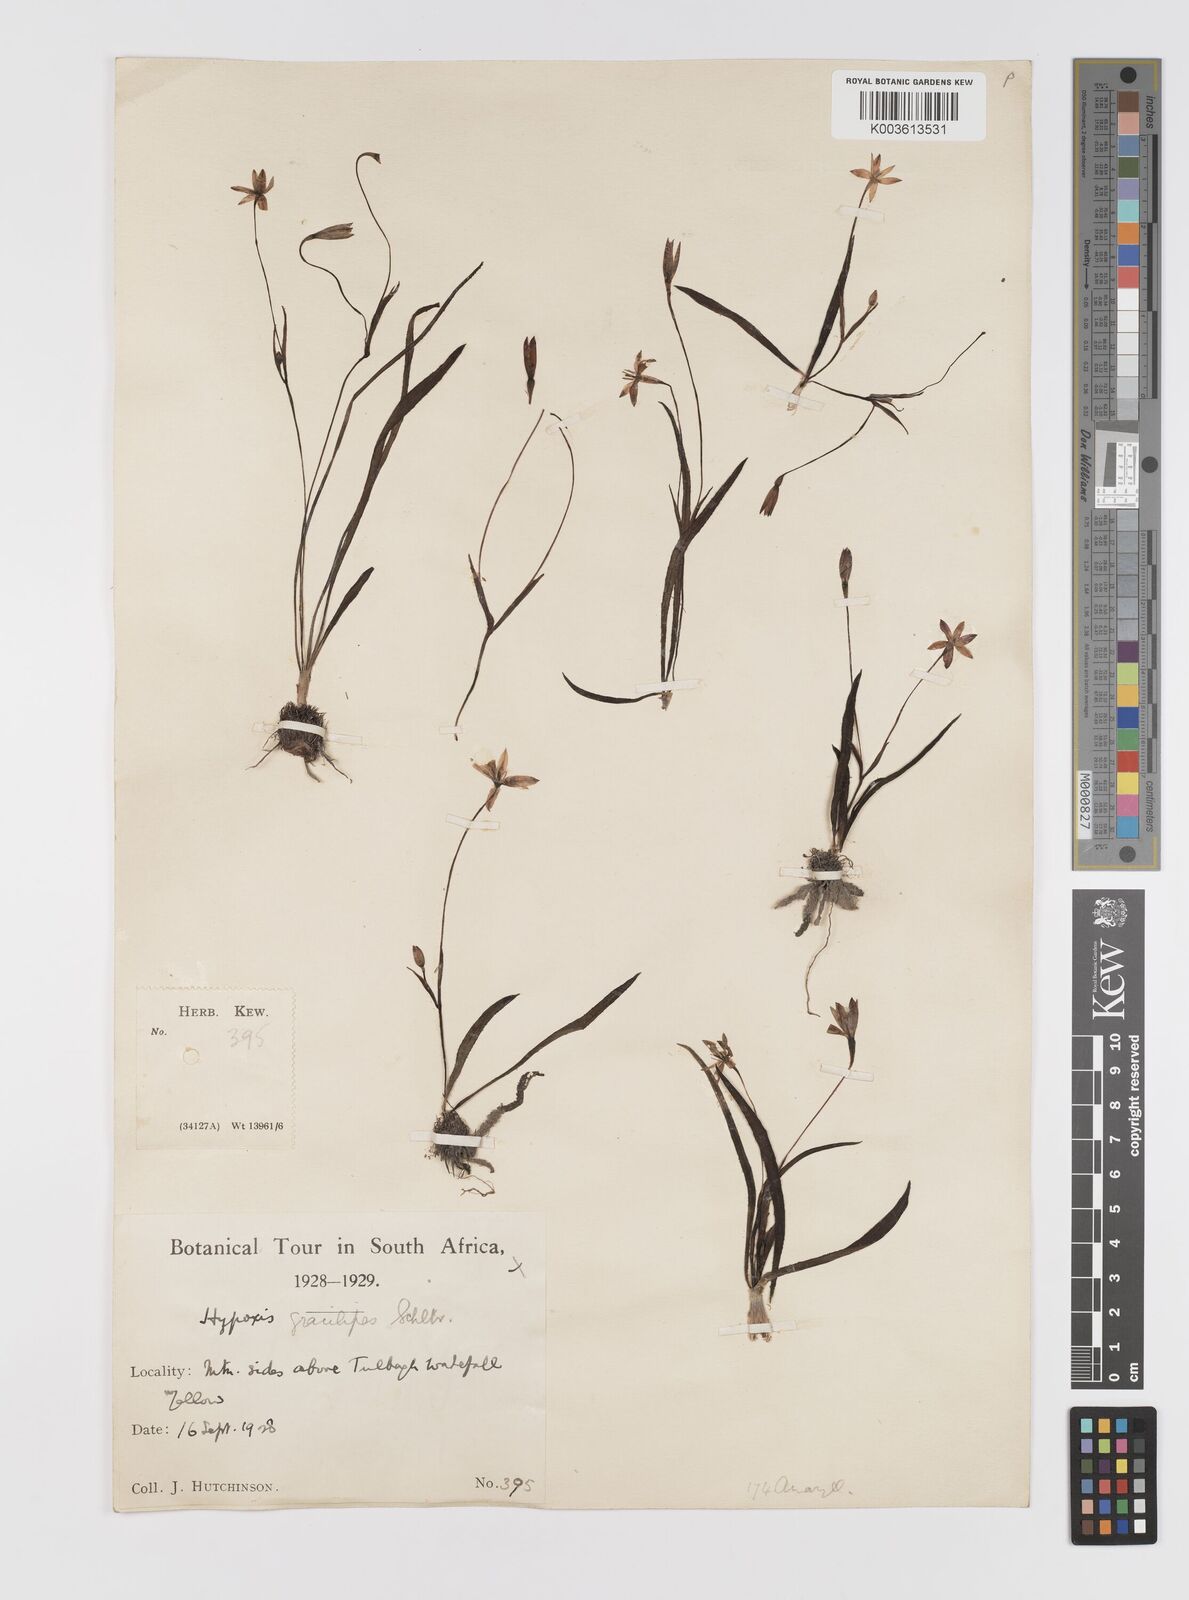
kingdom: Plantae
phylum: Tracheophyta
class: Liliopsida
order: Asparagales
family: Hypoxidaceae
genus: Pauridia
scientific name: Pauridia gracilipes
